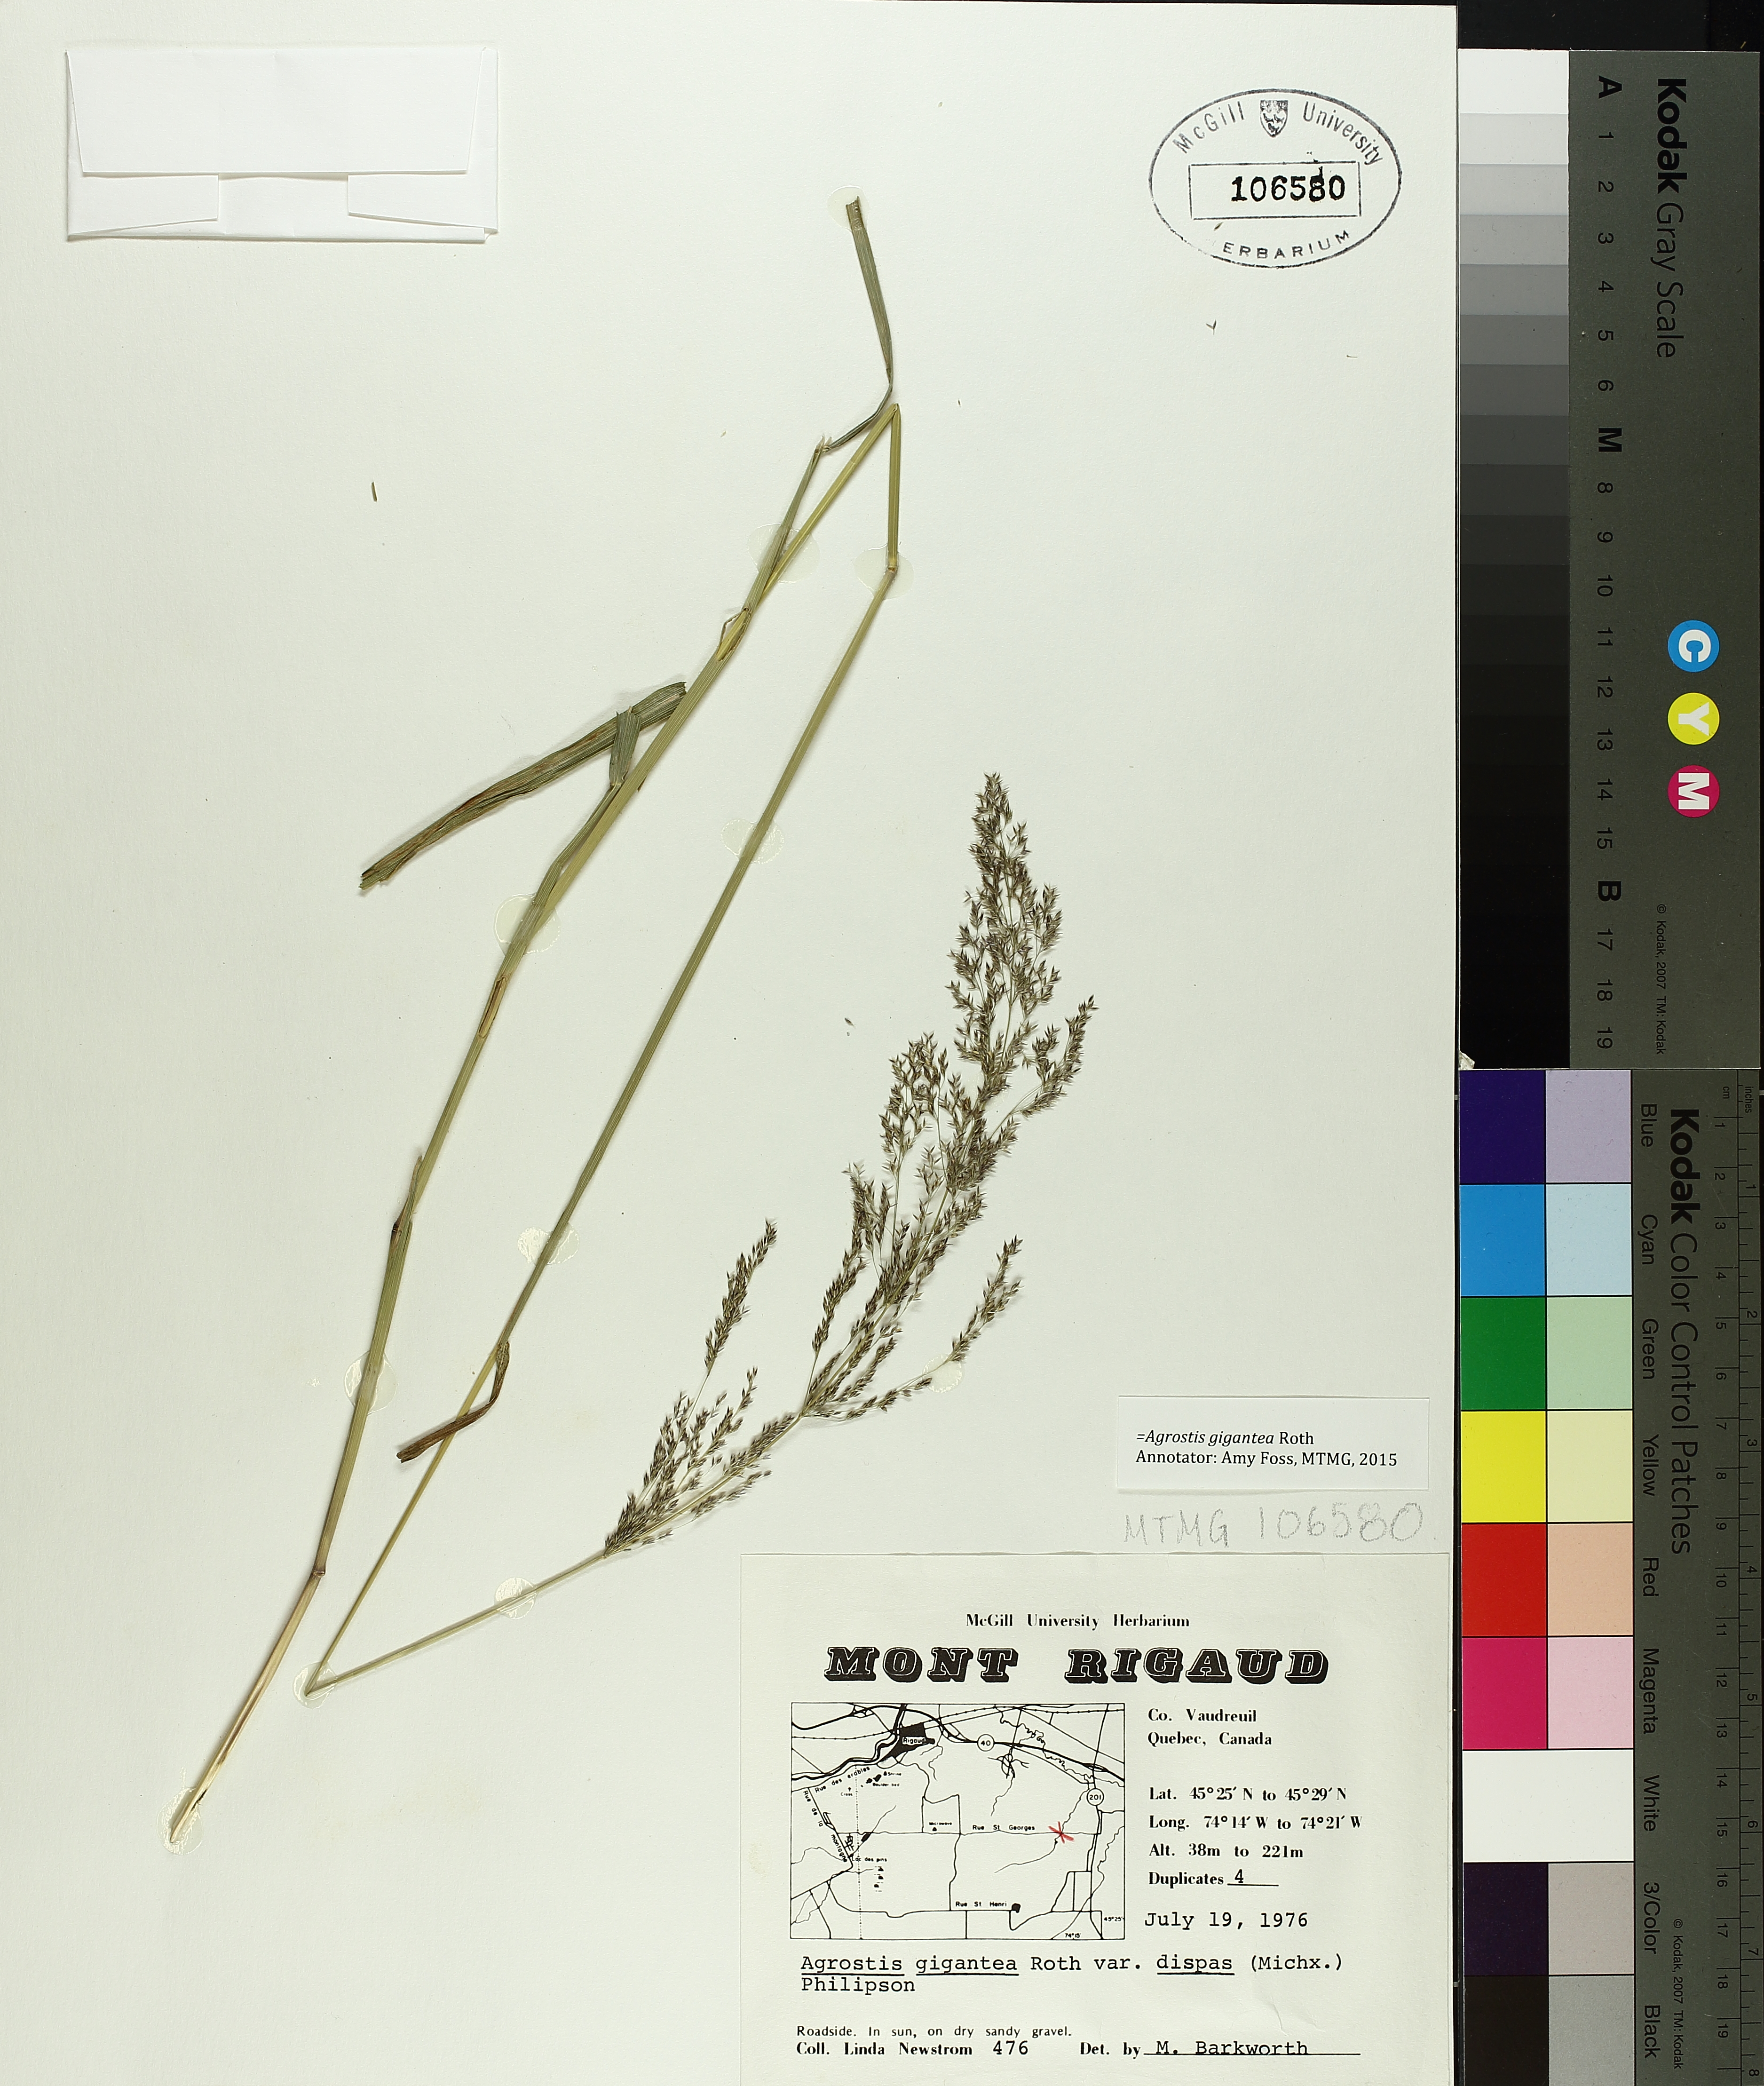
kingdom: Plantae
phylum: Tracheophyta
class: Liliopsida
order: Poales
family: Cyperaceae
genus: Carex
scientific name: Carex saxatilis
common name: Russet sedge
